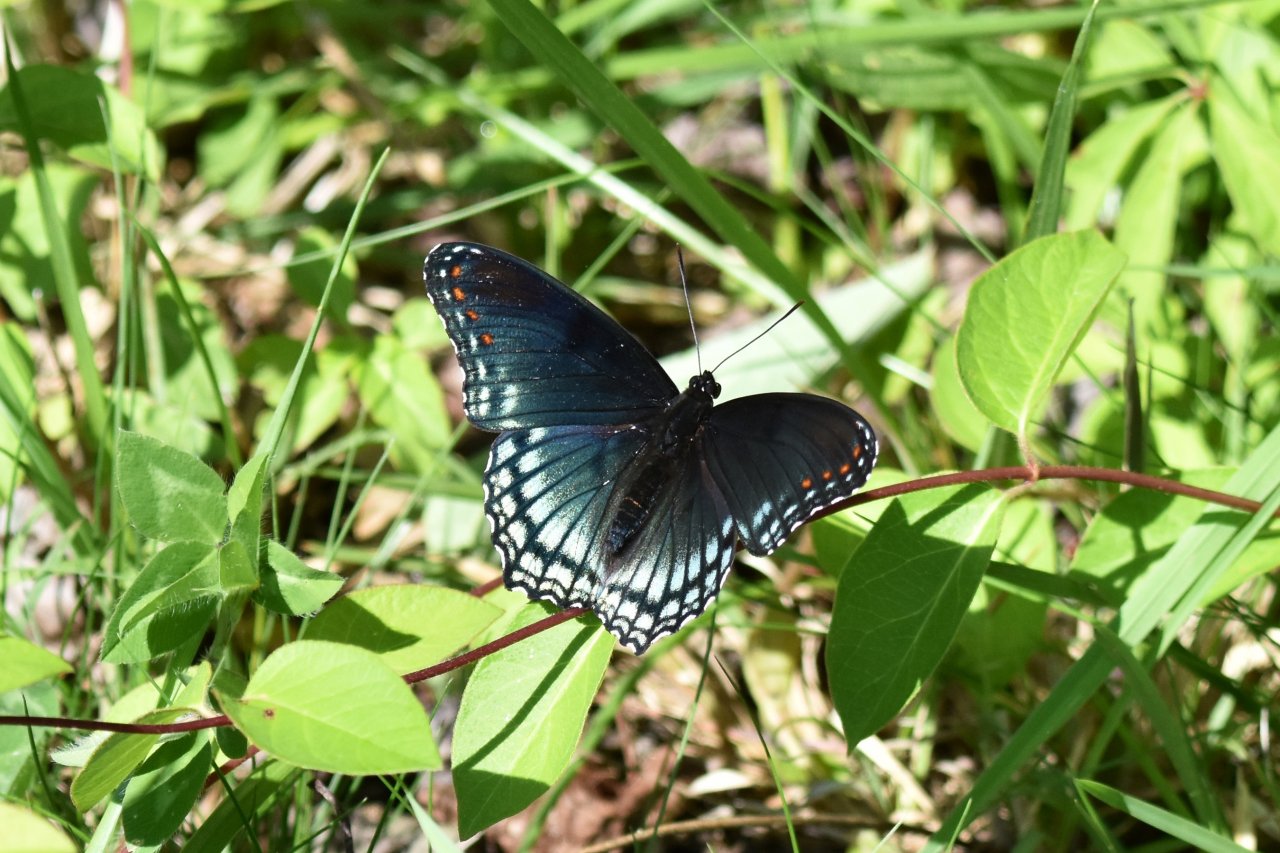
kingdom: Animalia
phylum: Arthropoda
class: Insecta
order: Lepidoptera
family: Nymphalidae
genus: Limenitis
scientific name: Limenitis astyanax
